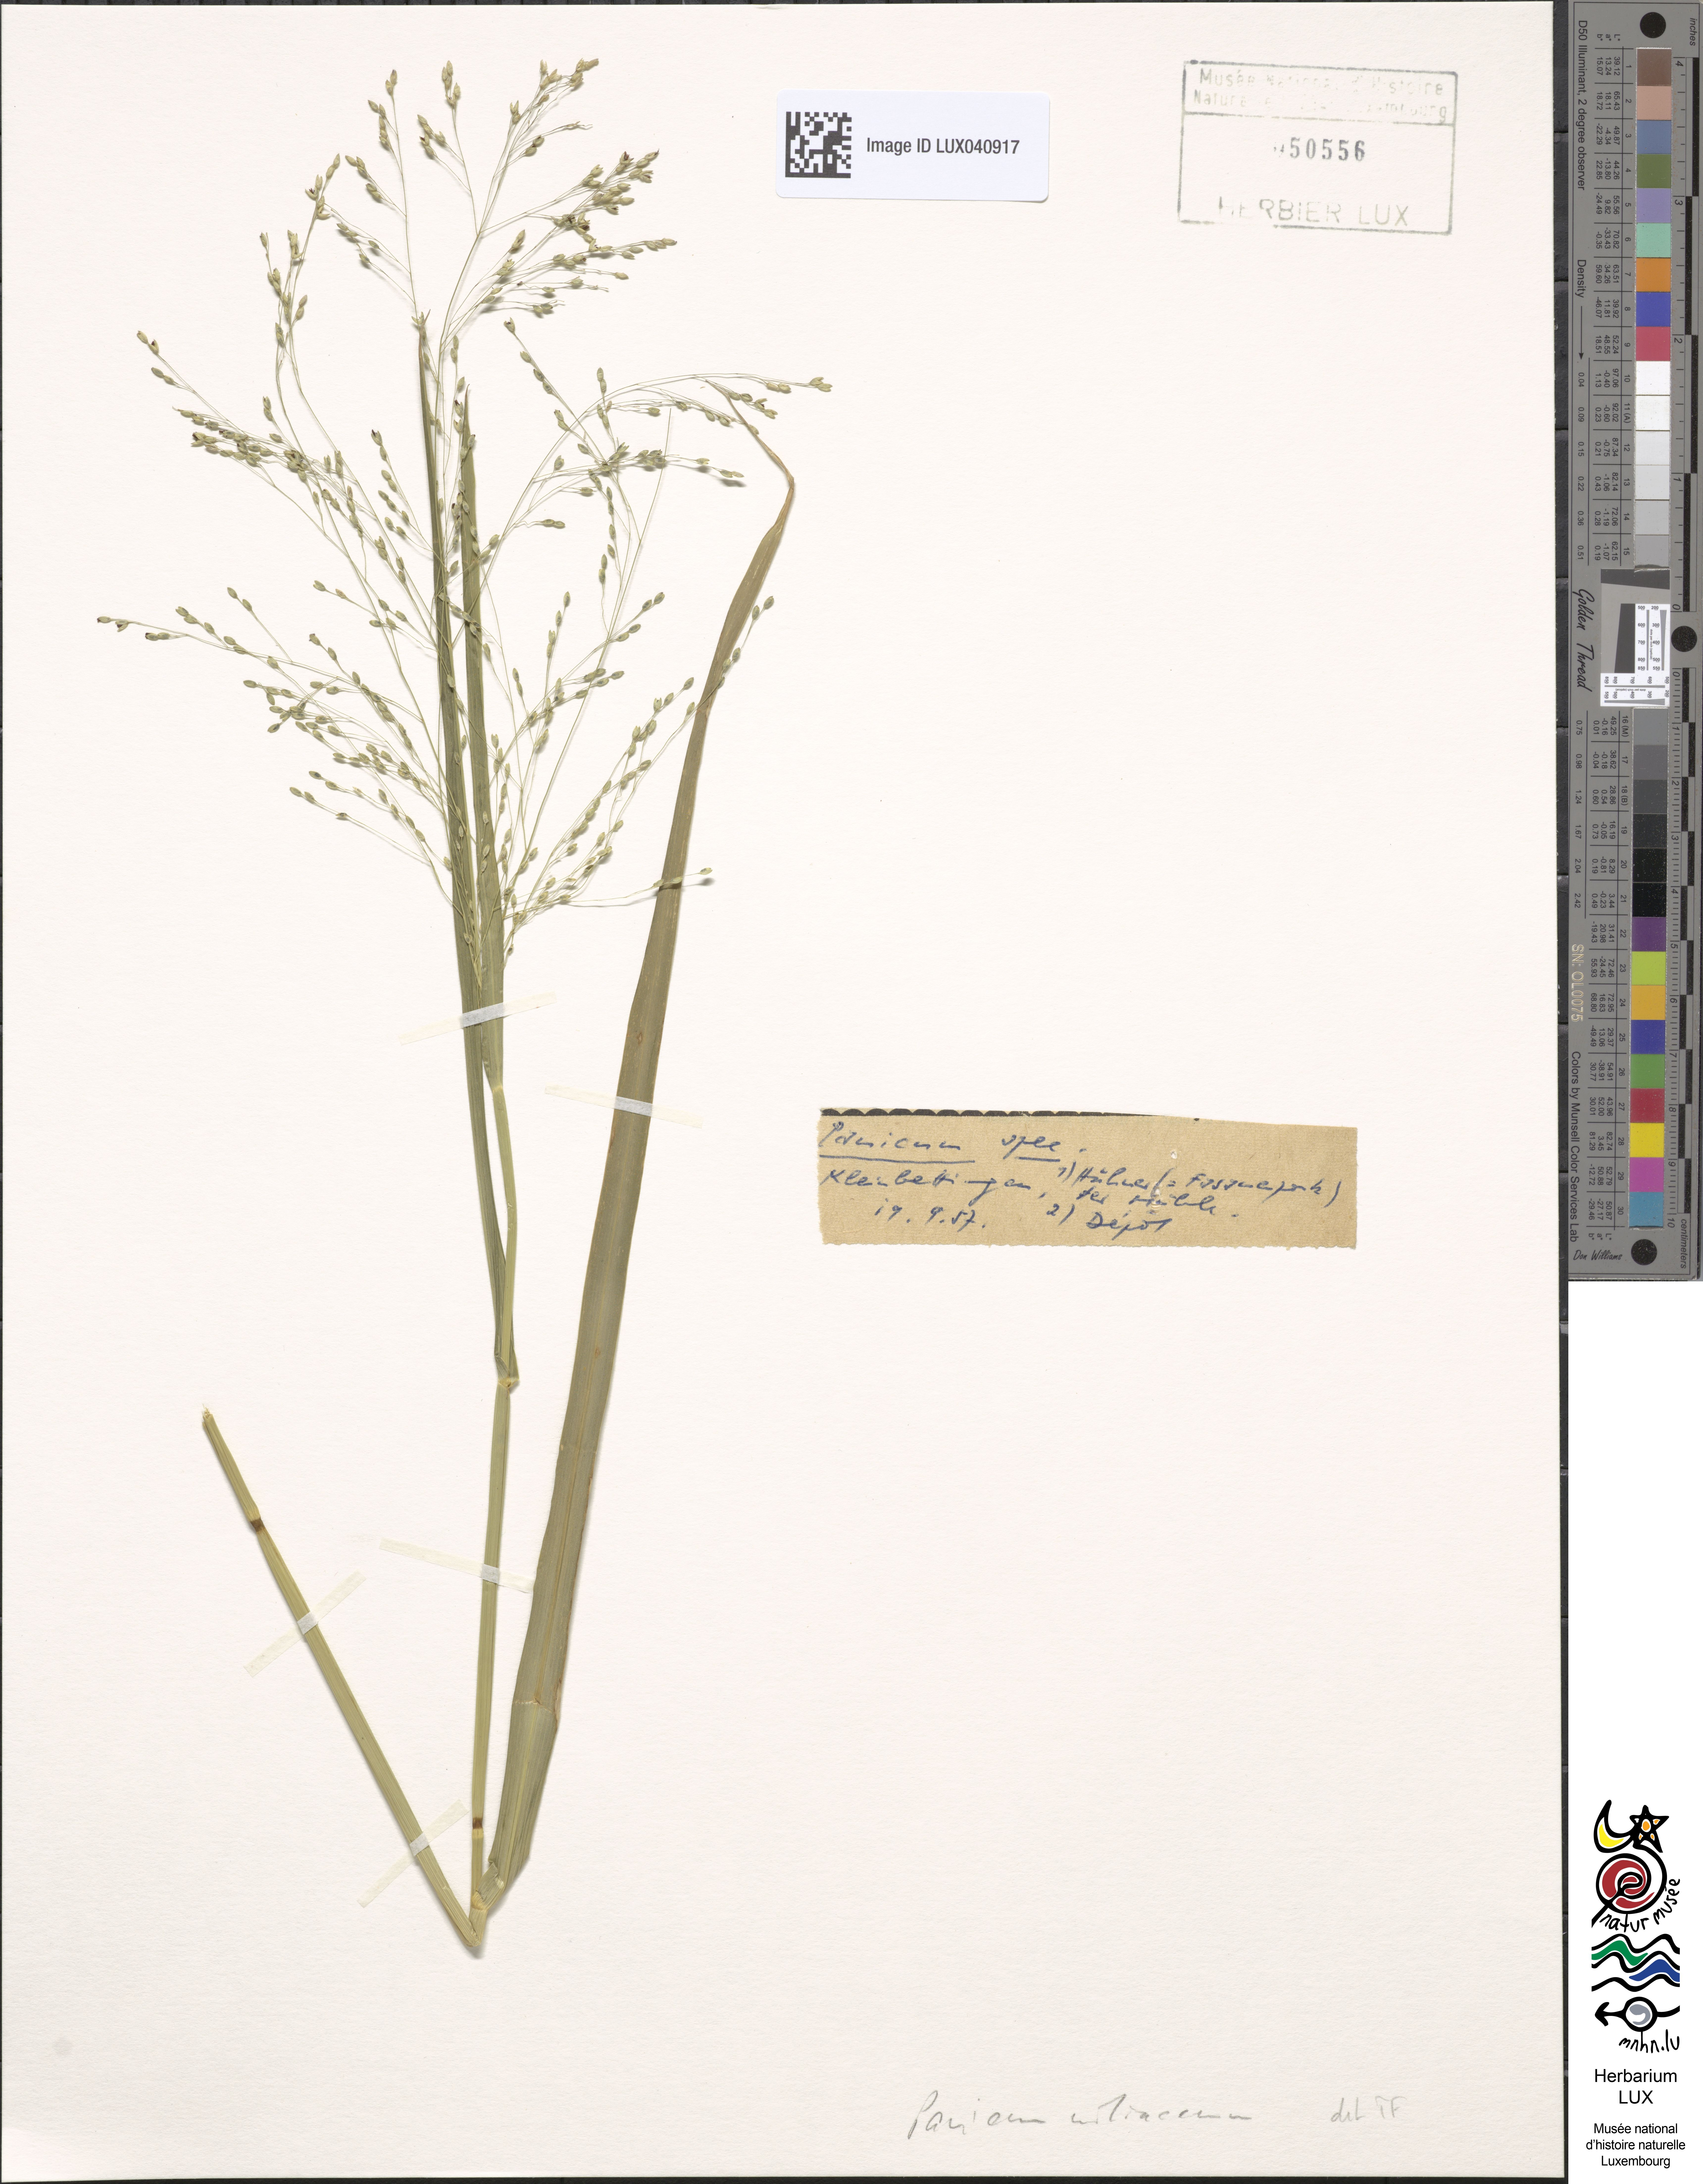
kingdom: Plantae
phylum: Tracheophyta
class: Liliopsida
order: Poales
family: Poaceae
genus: Panicum
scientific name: Panicum miliaceum
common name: Common millet
